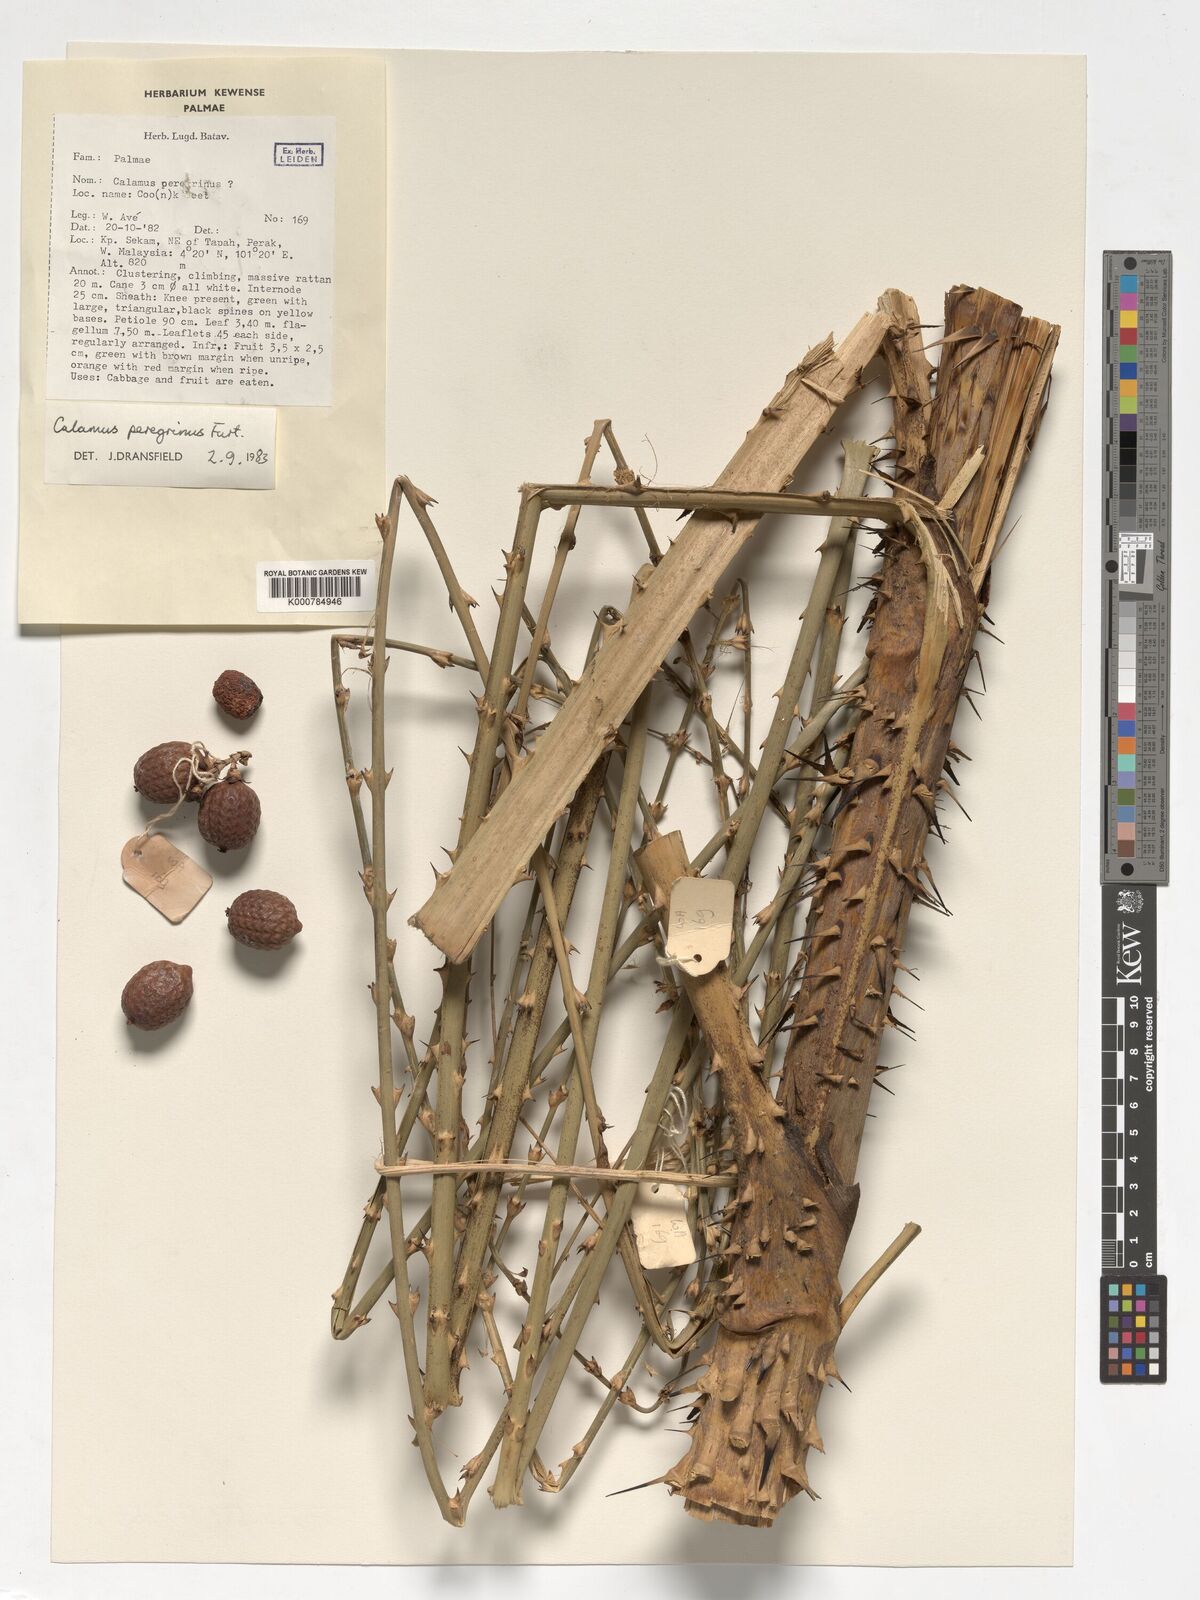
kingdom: Plantae
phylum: Tracheophyta
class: Liliopsida
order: Arecales
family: Arecaceae
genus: Calamus
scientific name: Calamus peregrinus
